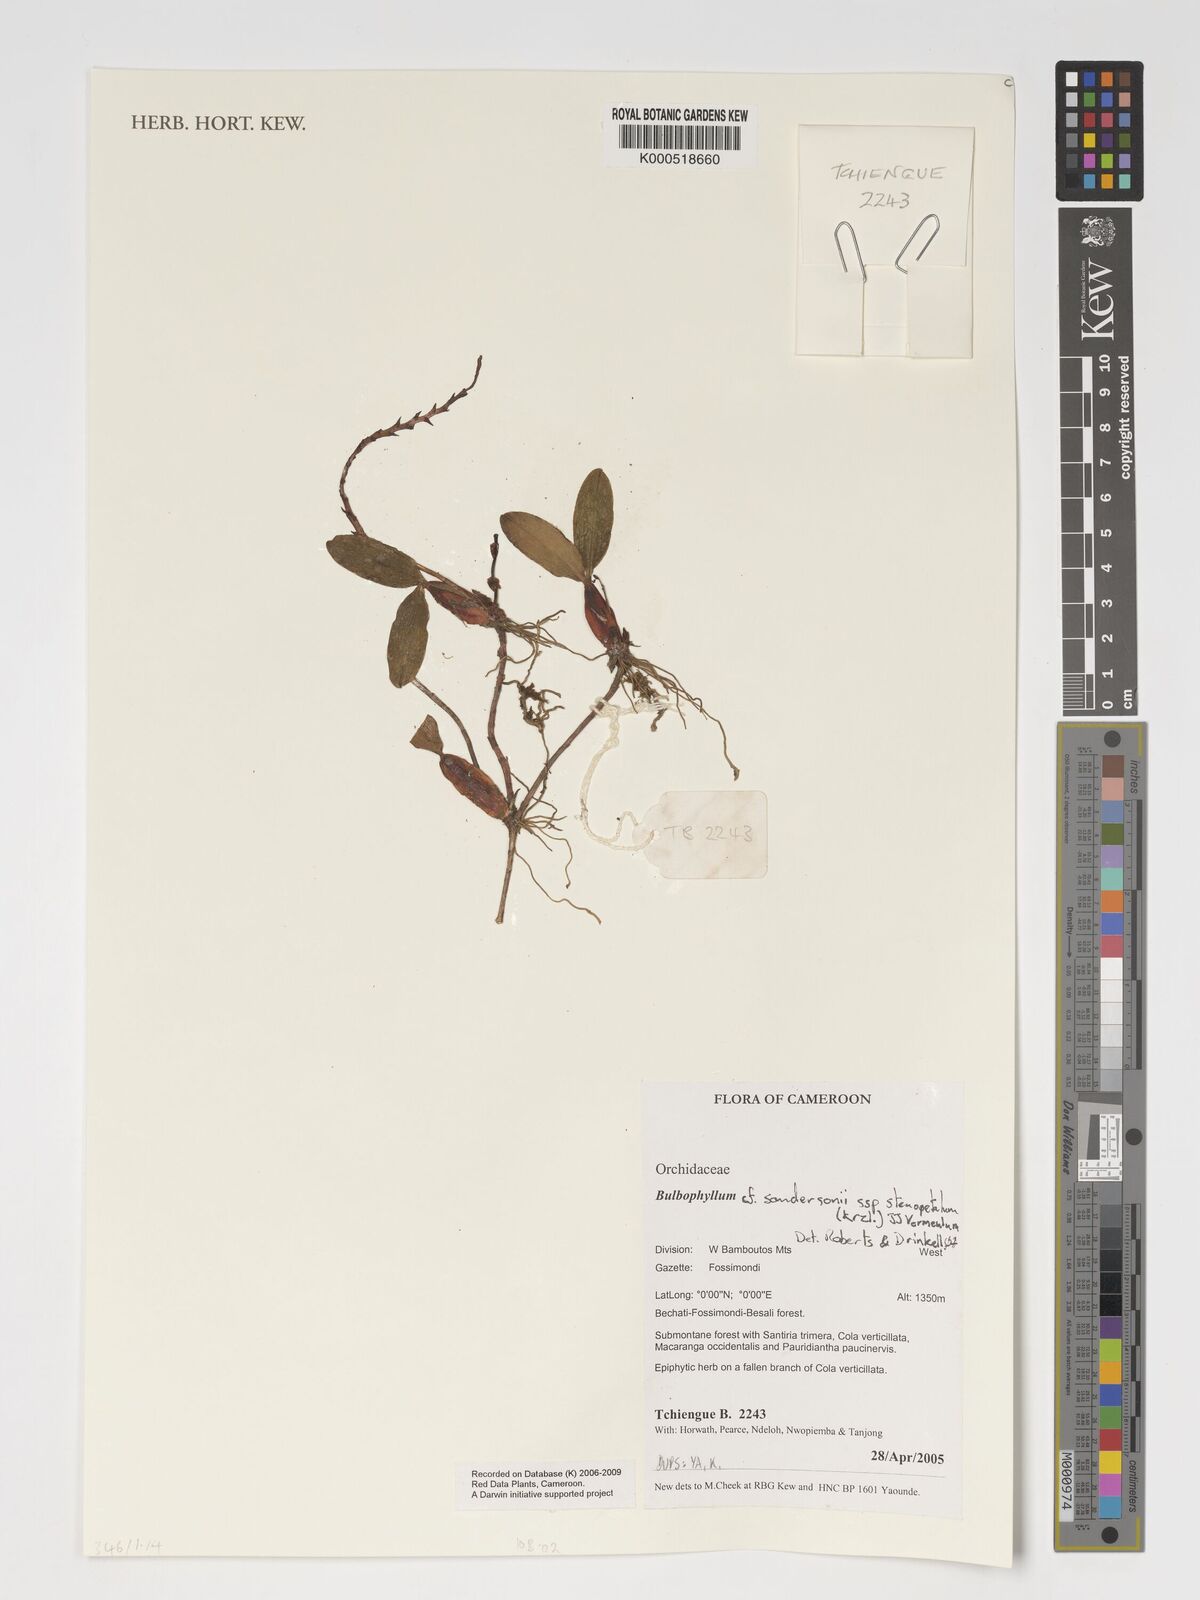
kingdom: Plantae
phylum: Tracheophyta
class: Liliopsida
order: Asparagales
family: Orchidaceae
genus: Bulbophyllum
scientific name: Bulbophyllum sandersonii
